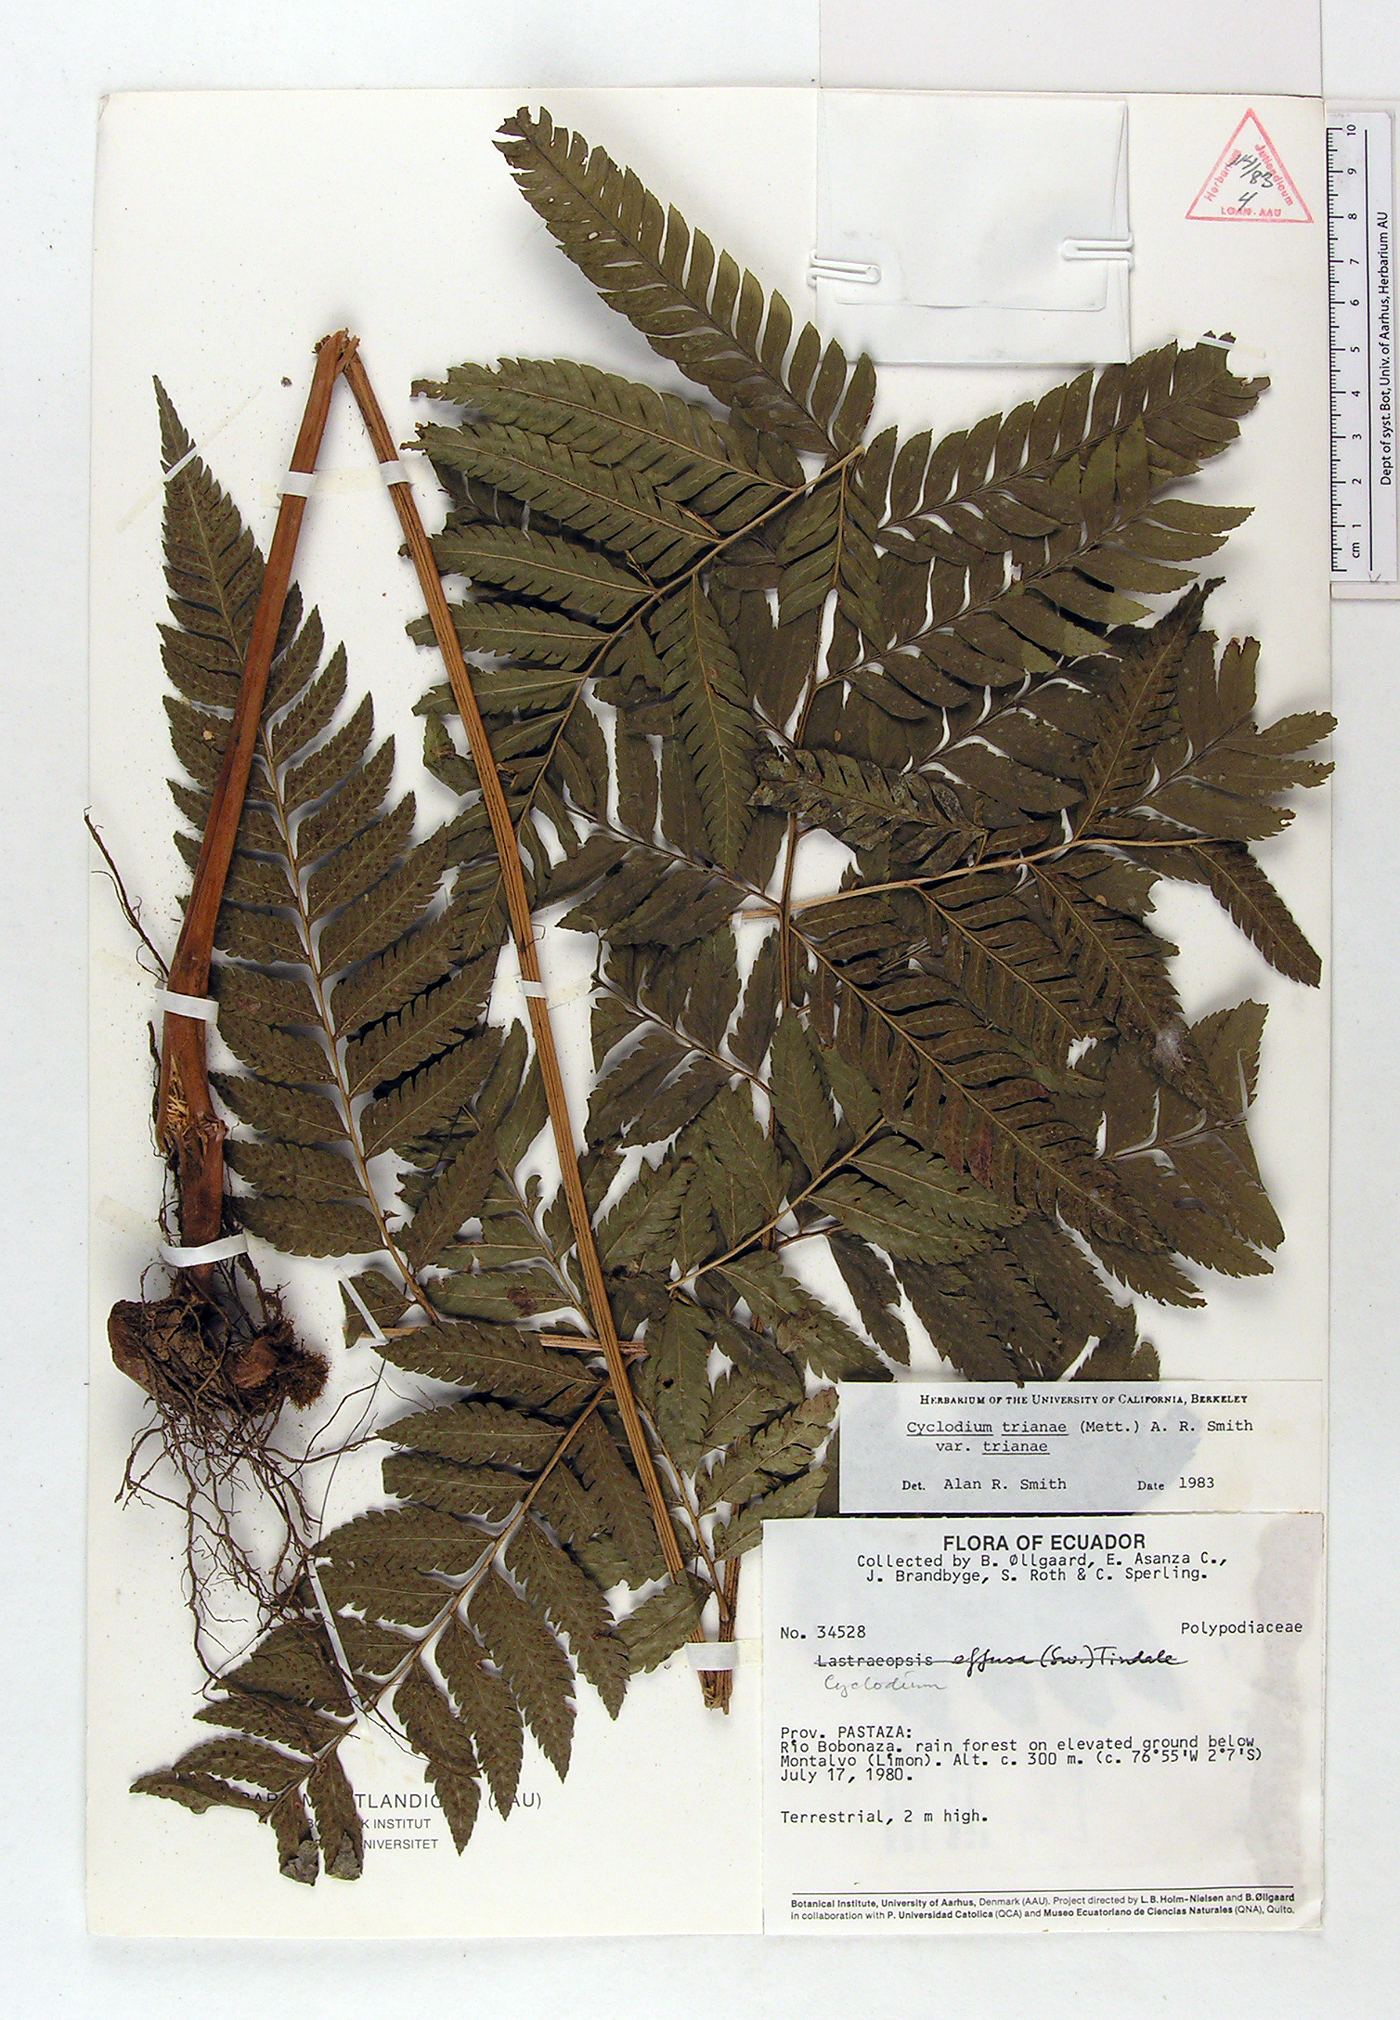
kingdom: Plantae
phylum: Tracheophyta
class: Polypodiopsida
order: Polypodiales
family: Dryopteridaceae
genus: Cyclodium
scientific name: Cyclodium trianae
